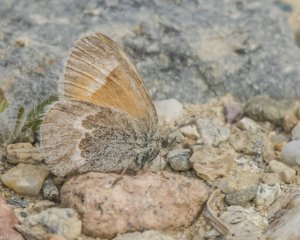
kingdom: Animalia
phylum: Arthropoda
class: Insecta
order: Lepidoptera
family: Nymphalidae
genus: Coenonympha
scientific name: Coenonympha tullia
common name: Large Heath
